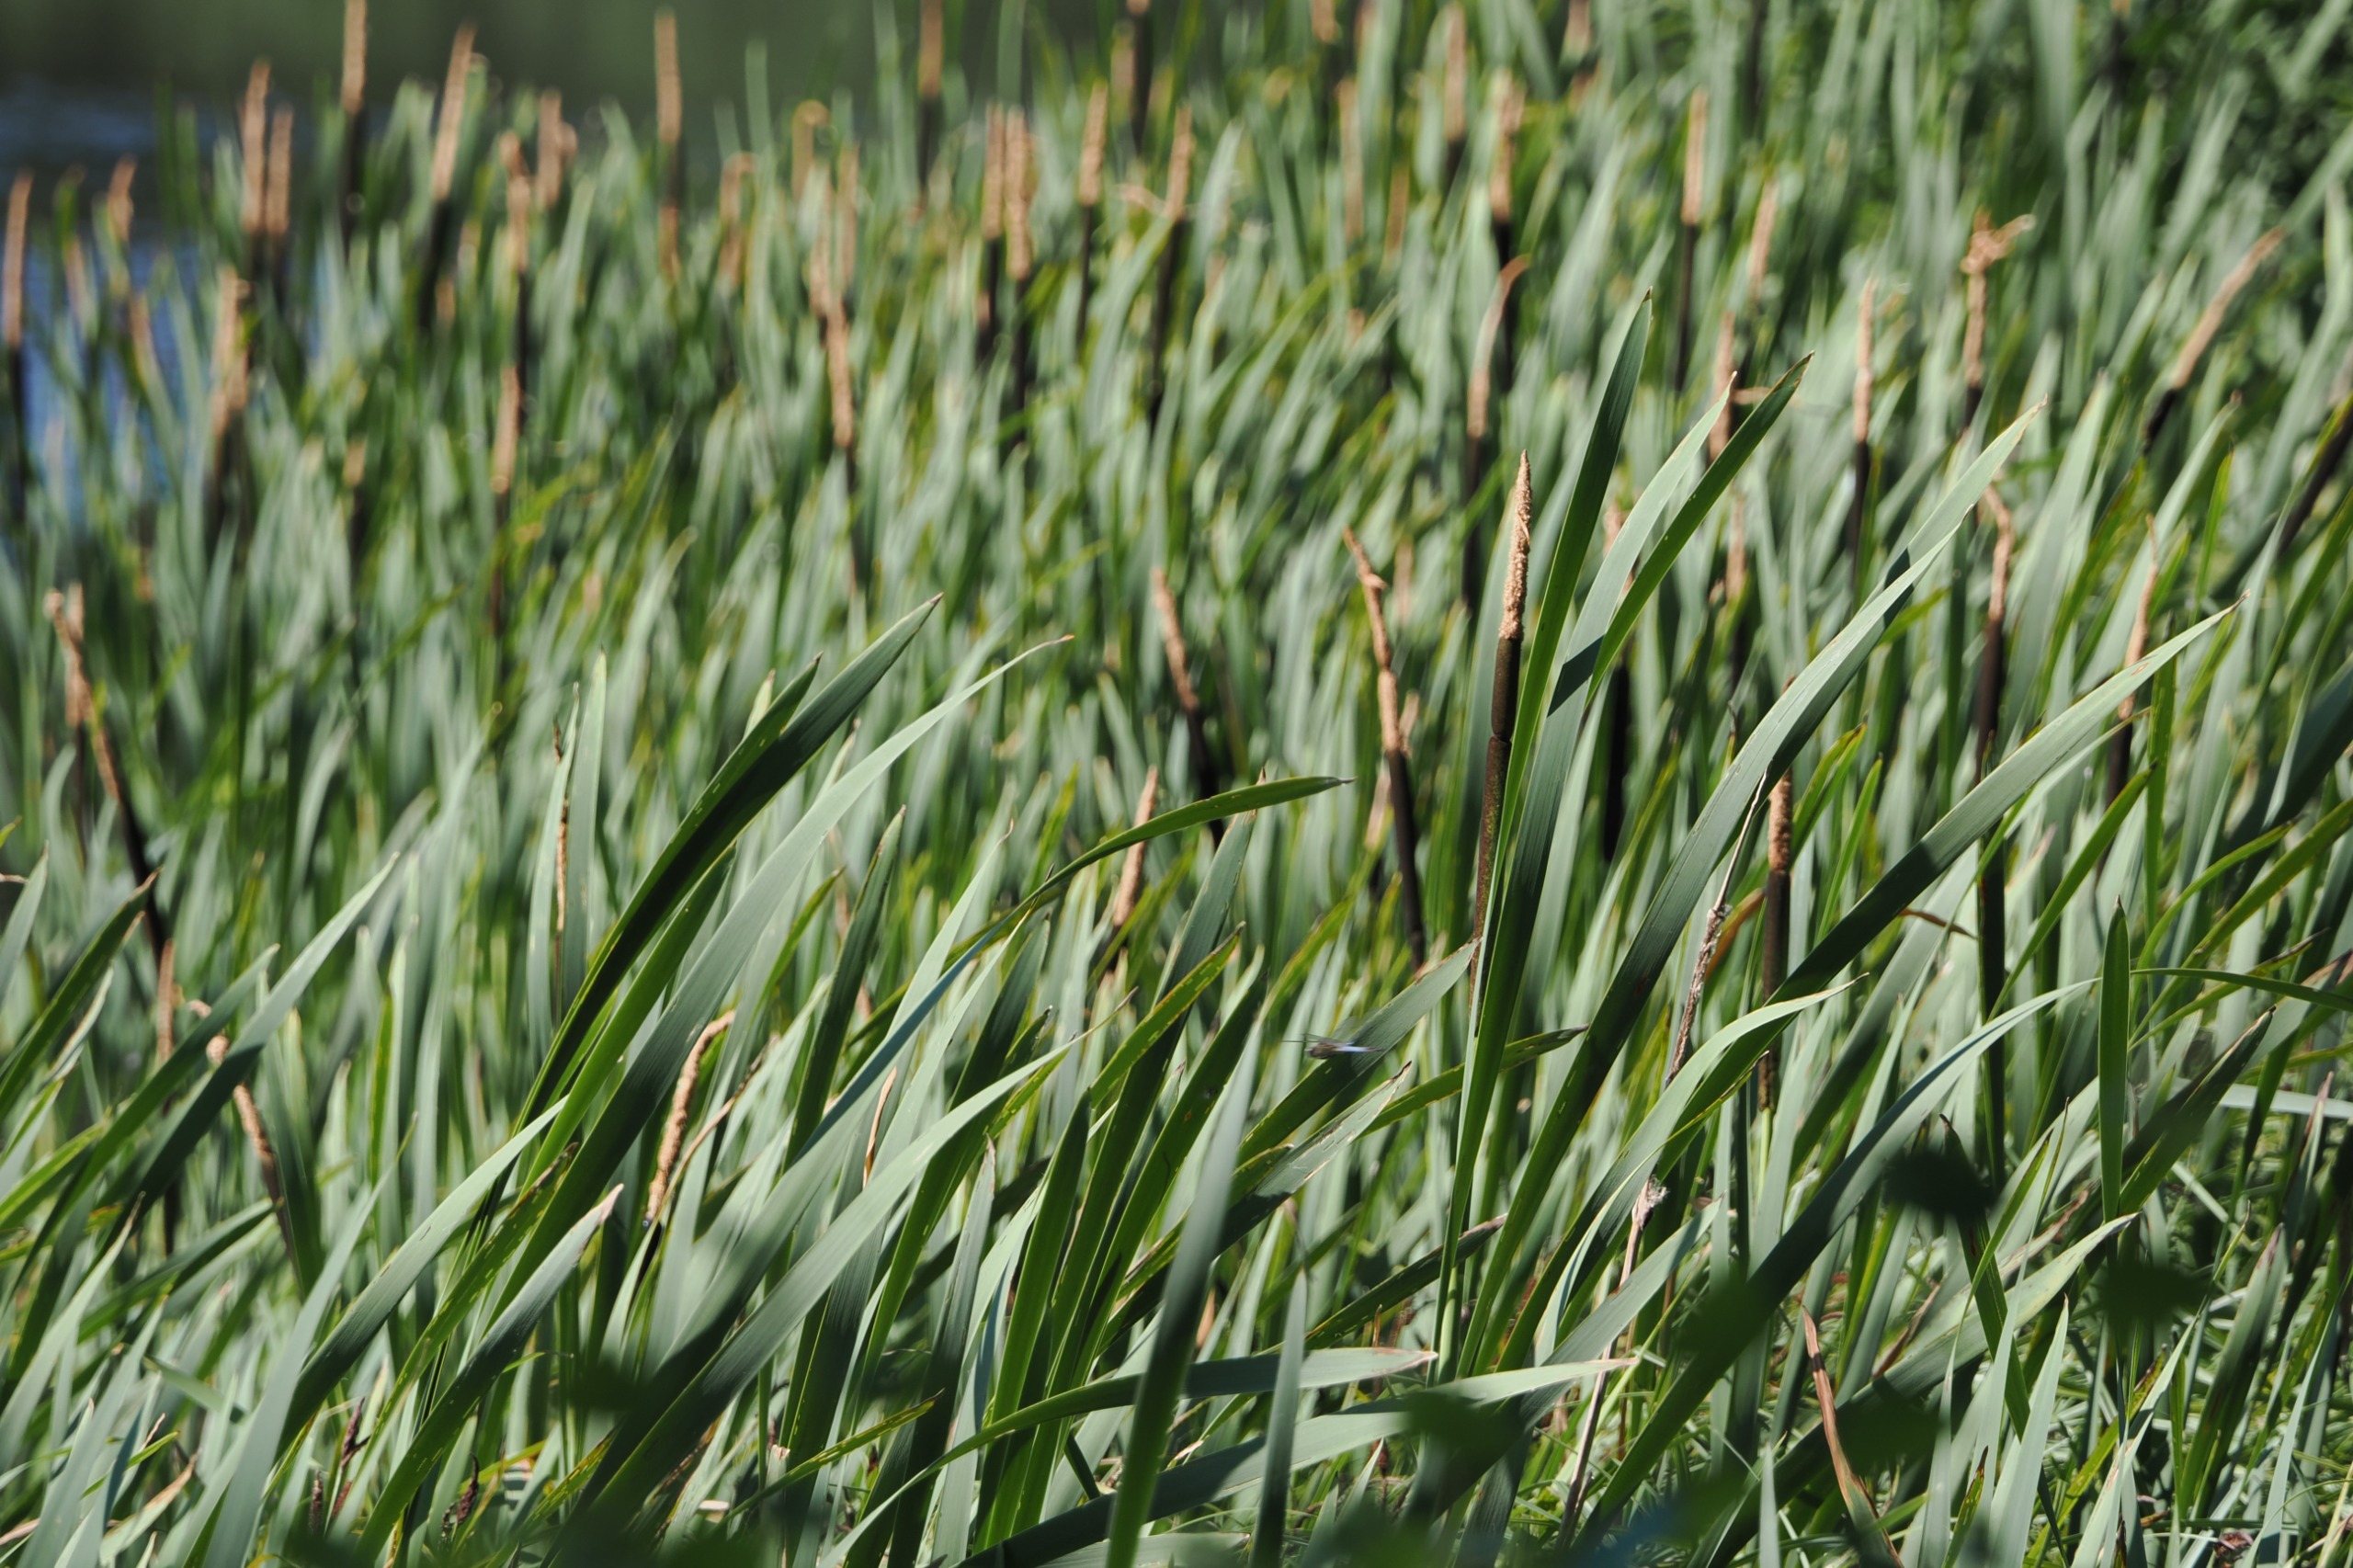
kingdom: Plantae
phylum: Tracheophyta
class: Liliopsida
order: Poales
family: Typhaceae
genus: Typha
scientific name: Typha latifolia
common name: Bredbladet dunhammer
